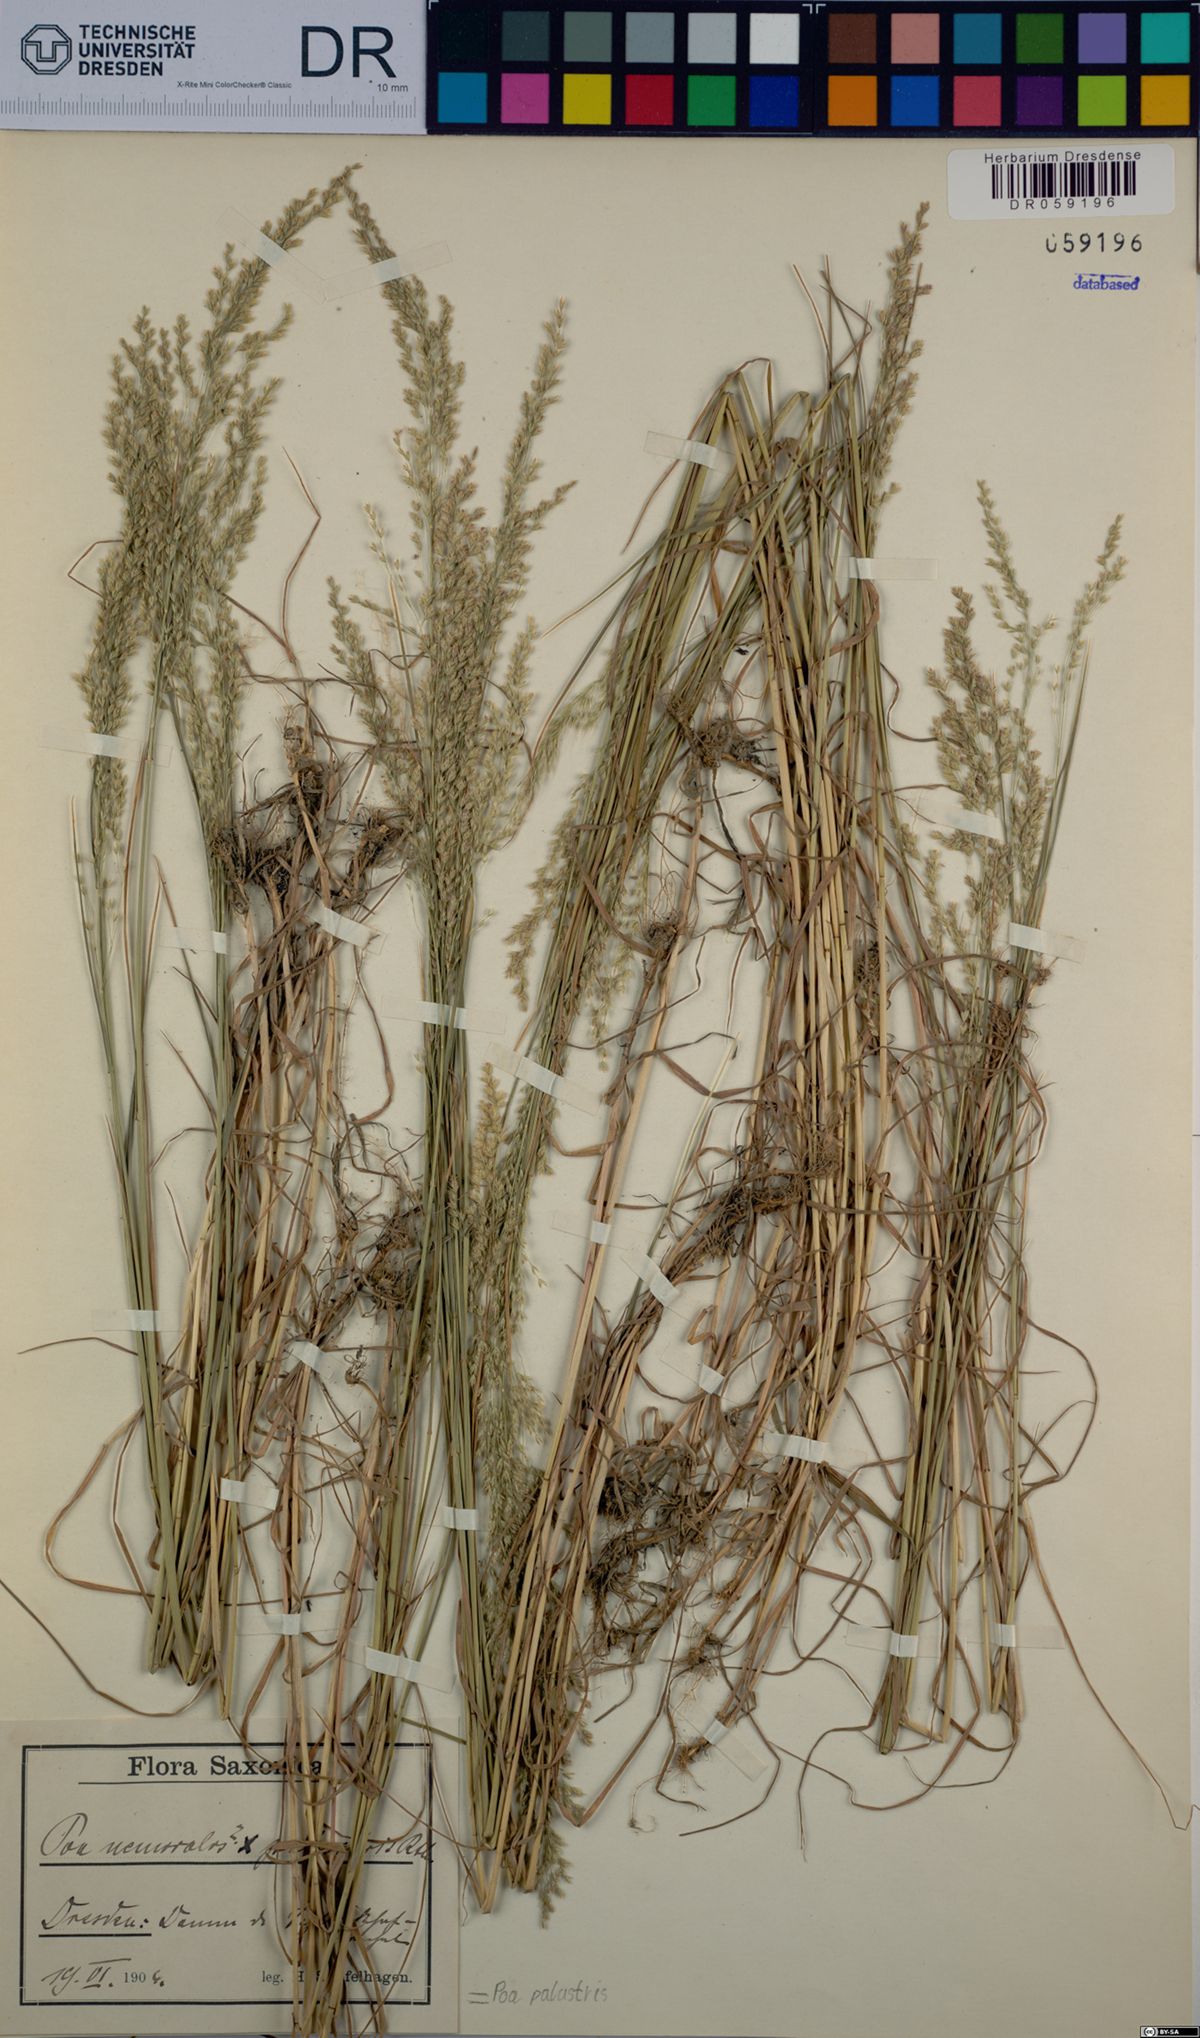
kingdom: Plantae
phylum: Tracheophyta
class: Liliopsida
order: Poales
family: Poaceae
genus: Poa
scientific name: Poa palustris
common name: Swamp meadow-grass
